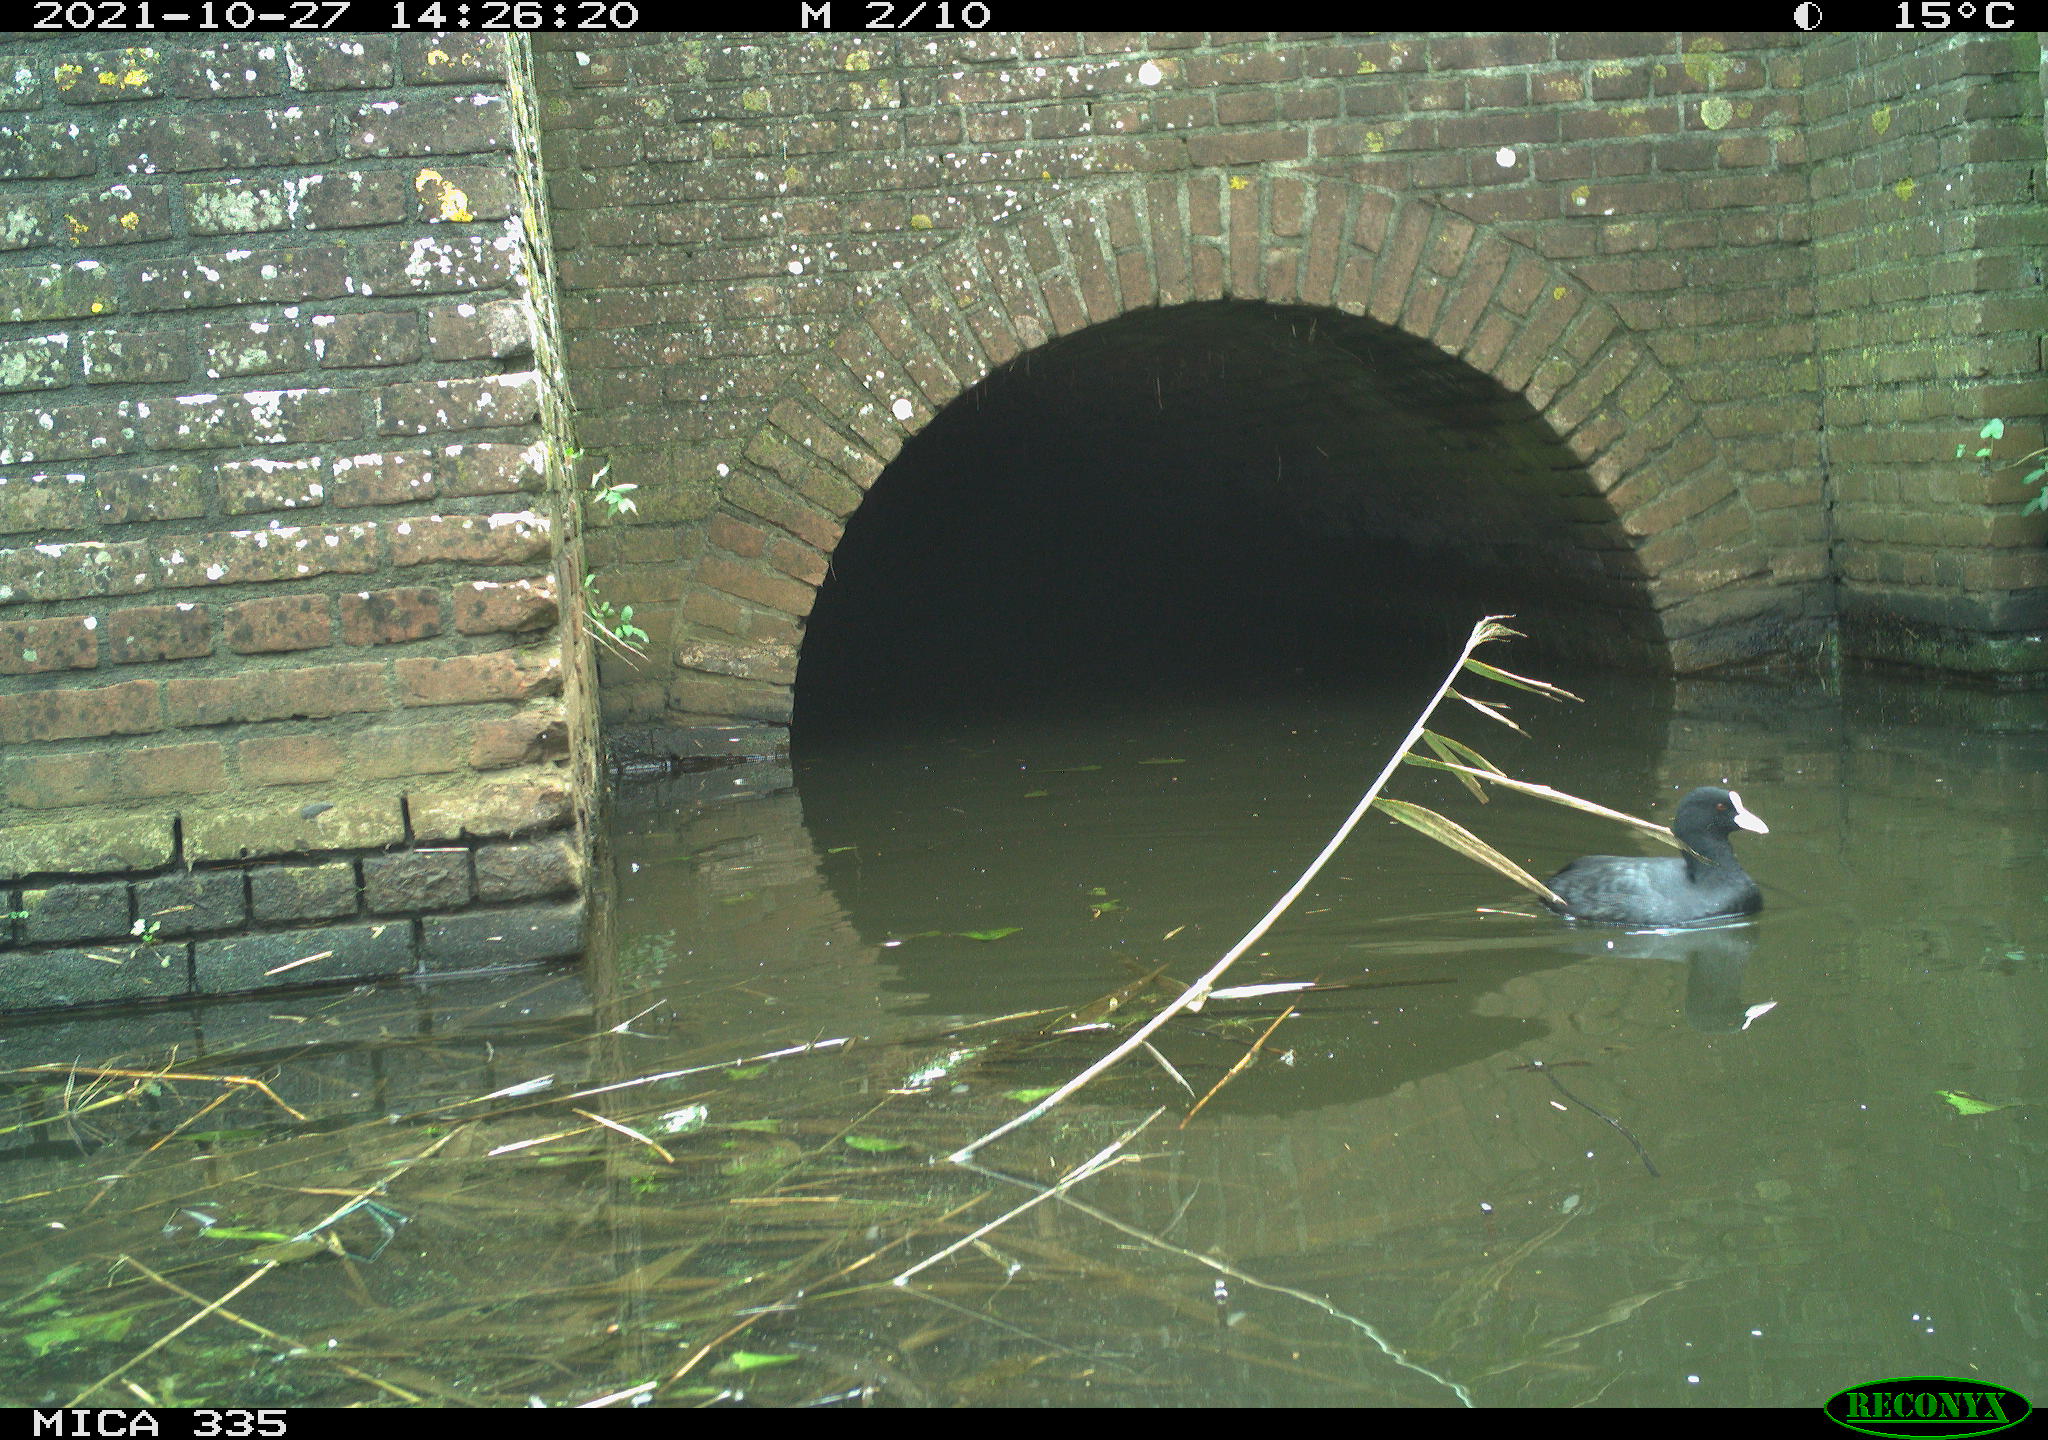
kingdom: Animalia
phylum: Chordata
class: Aves
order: Gruiformes
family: Rallidae
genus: Fulica
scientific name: Fulica atra
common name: Eurasian coot
